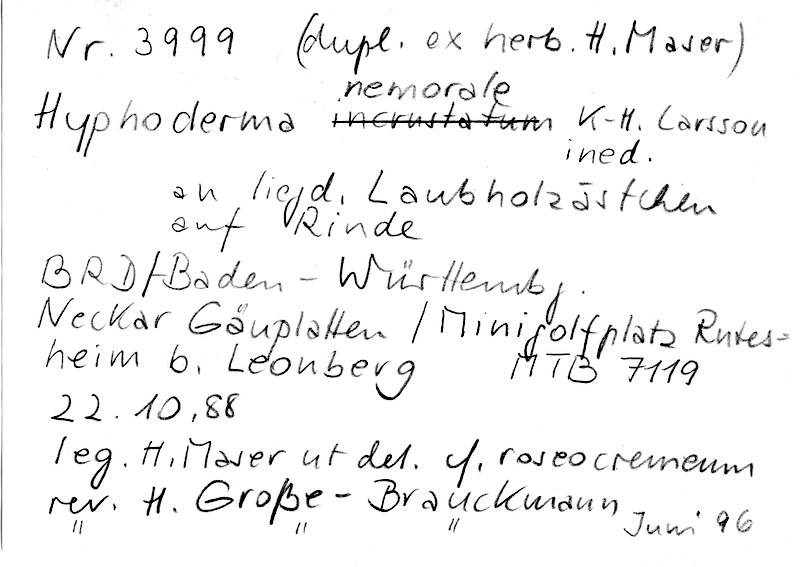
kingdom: Fungi
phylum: Basidiomycota
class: Agaricomycetes
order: Polyporales
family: Hyphodermataceae
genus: Hyphoderma
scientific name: Hyphoderma nemorale
